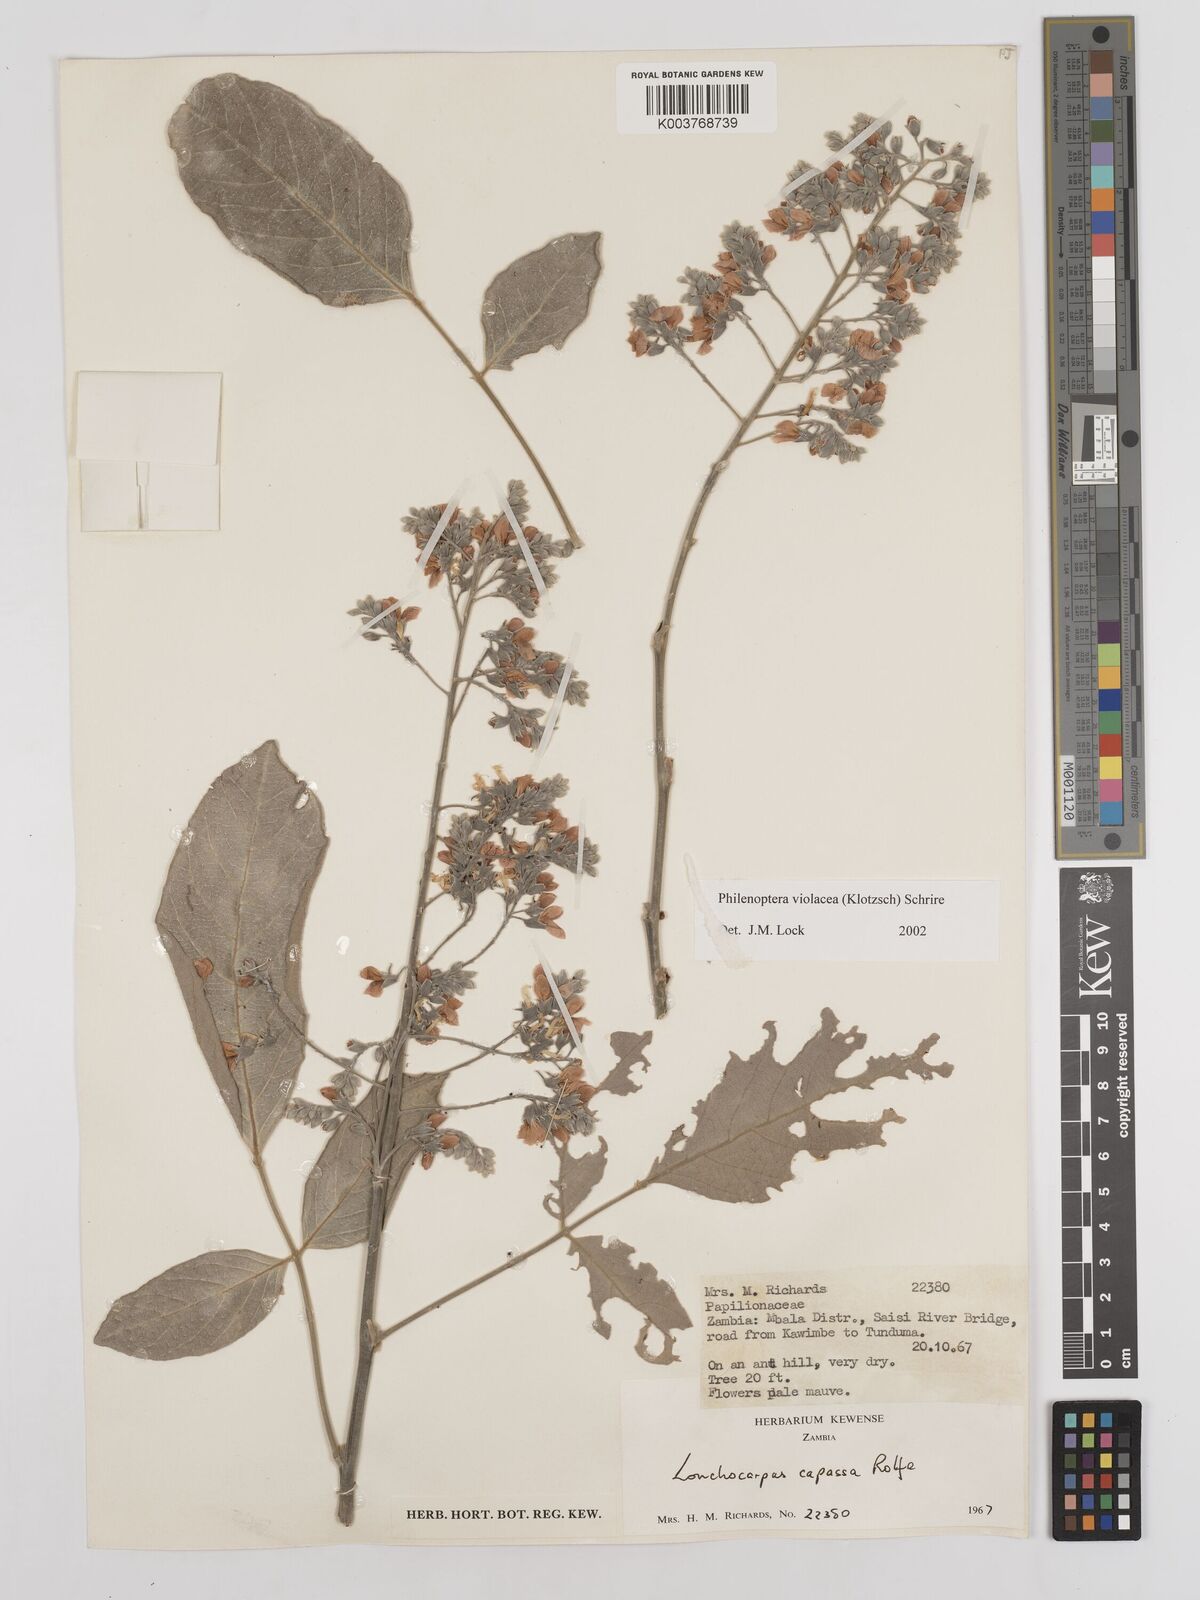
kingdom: Plantae
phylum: Tracheophyta
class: Magnoliopsida
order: Fabales
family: Fabaceae
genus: Philenoptera
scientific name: Philenoptera violacea
